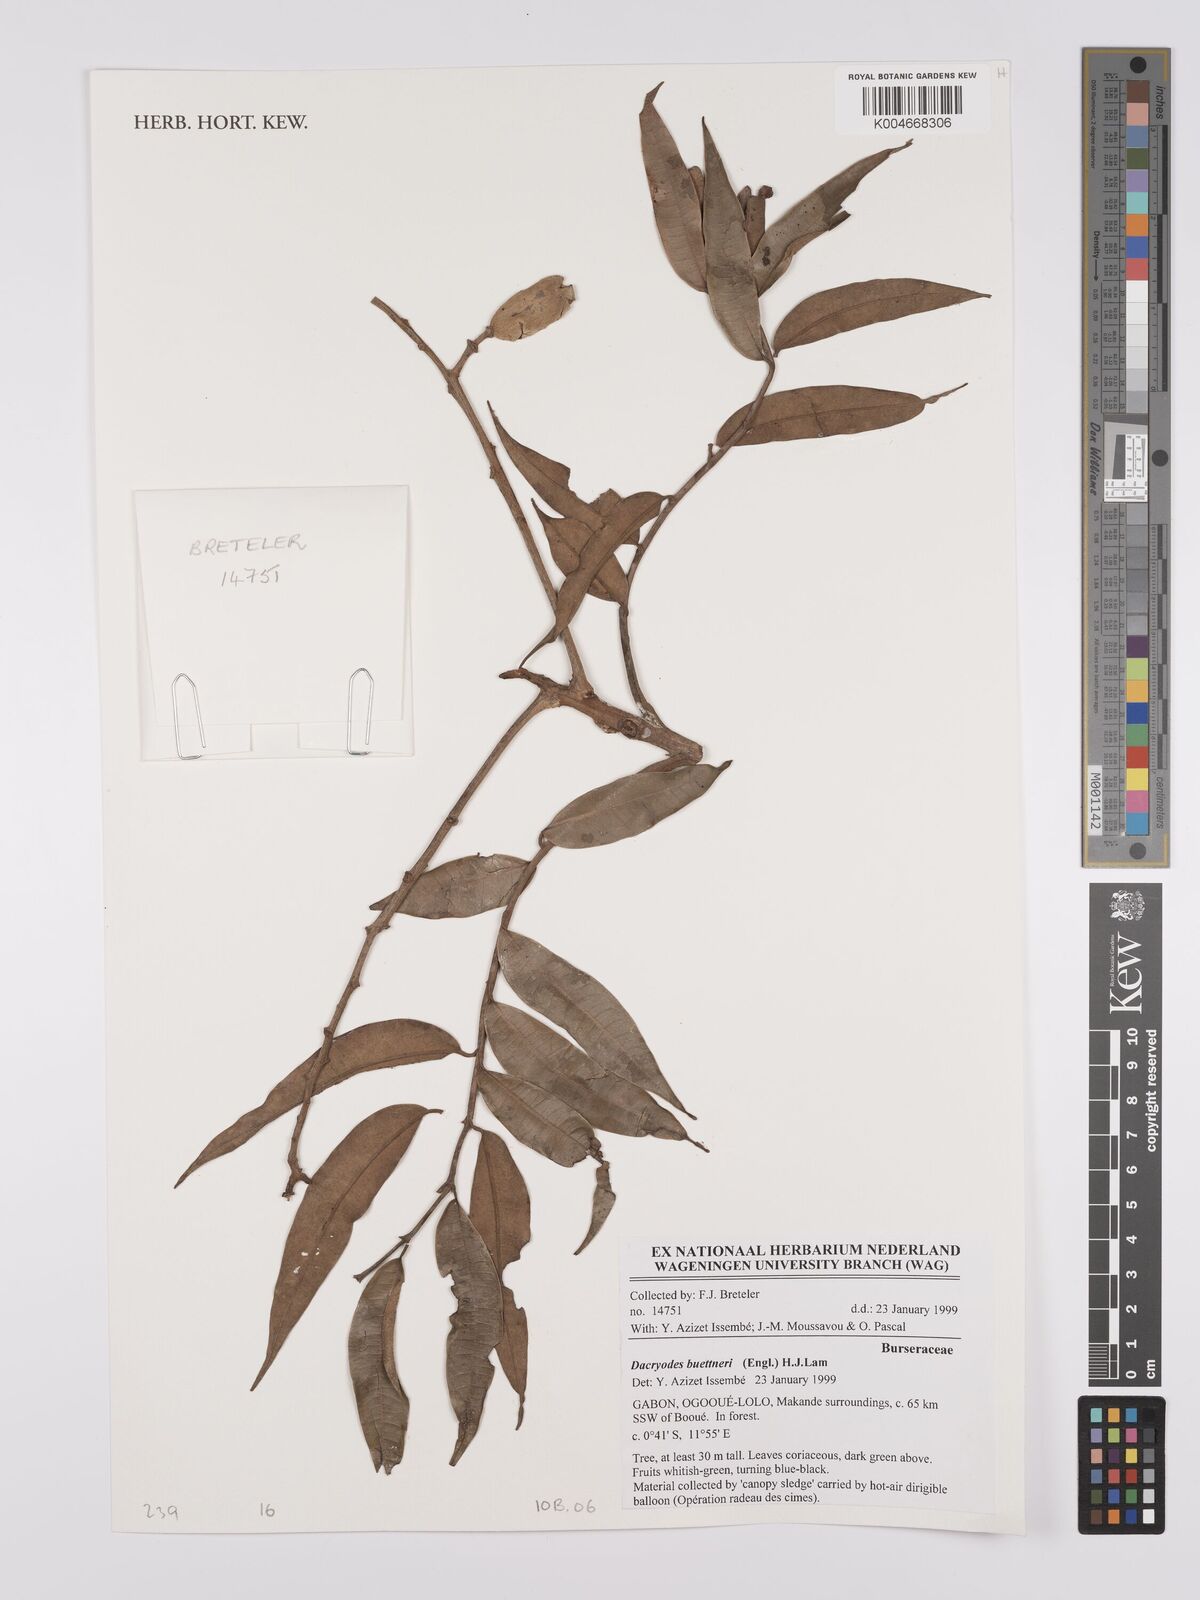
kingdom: Plantae
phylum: Tracheophyta
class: Magnoliopsida
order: Sapindales
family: Burseraceae
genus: Pachylobus
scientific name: Pachylobus buettneri
